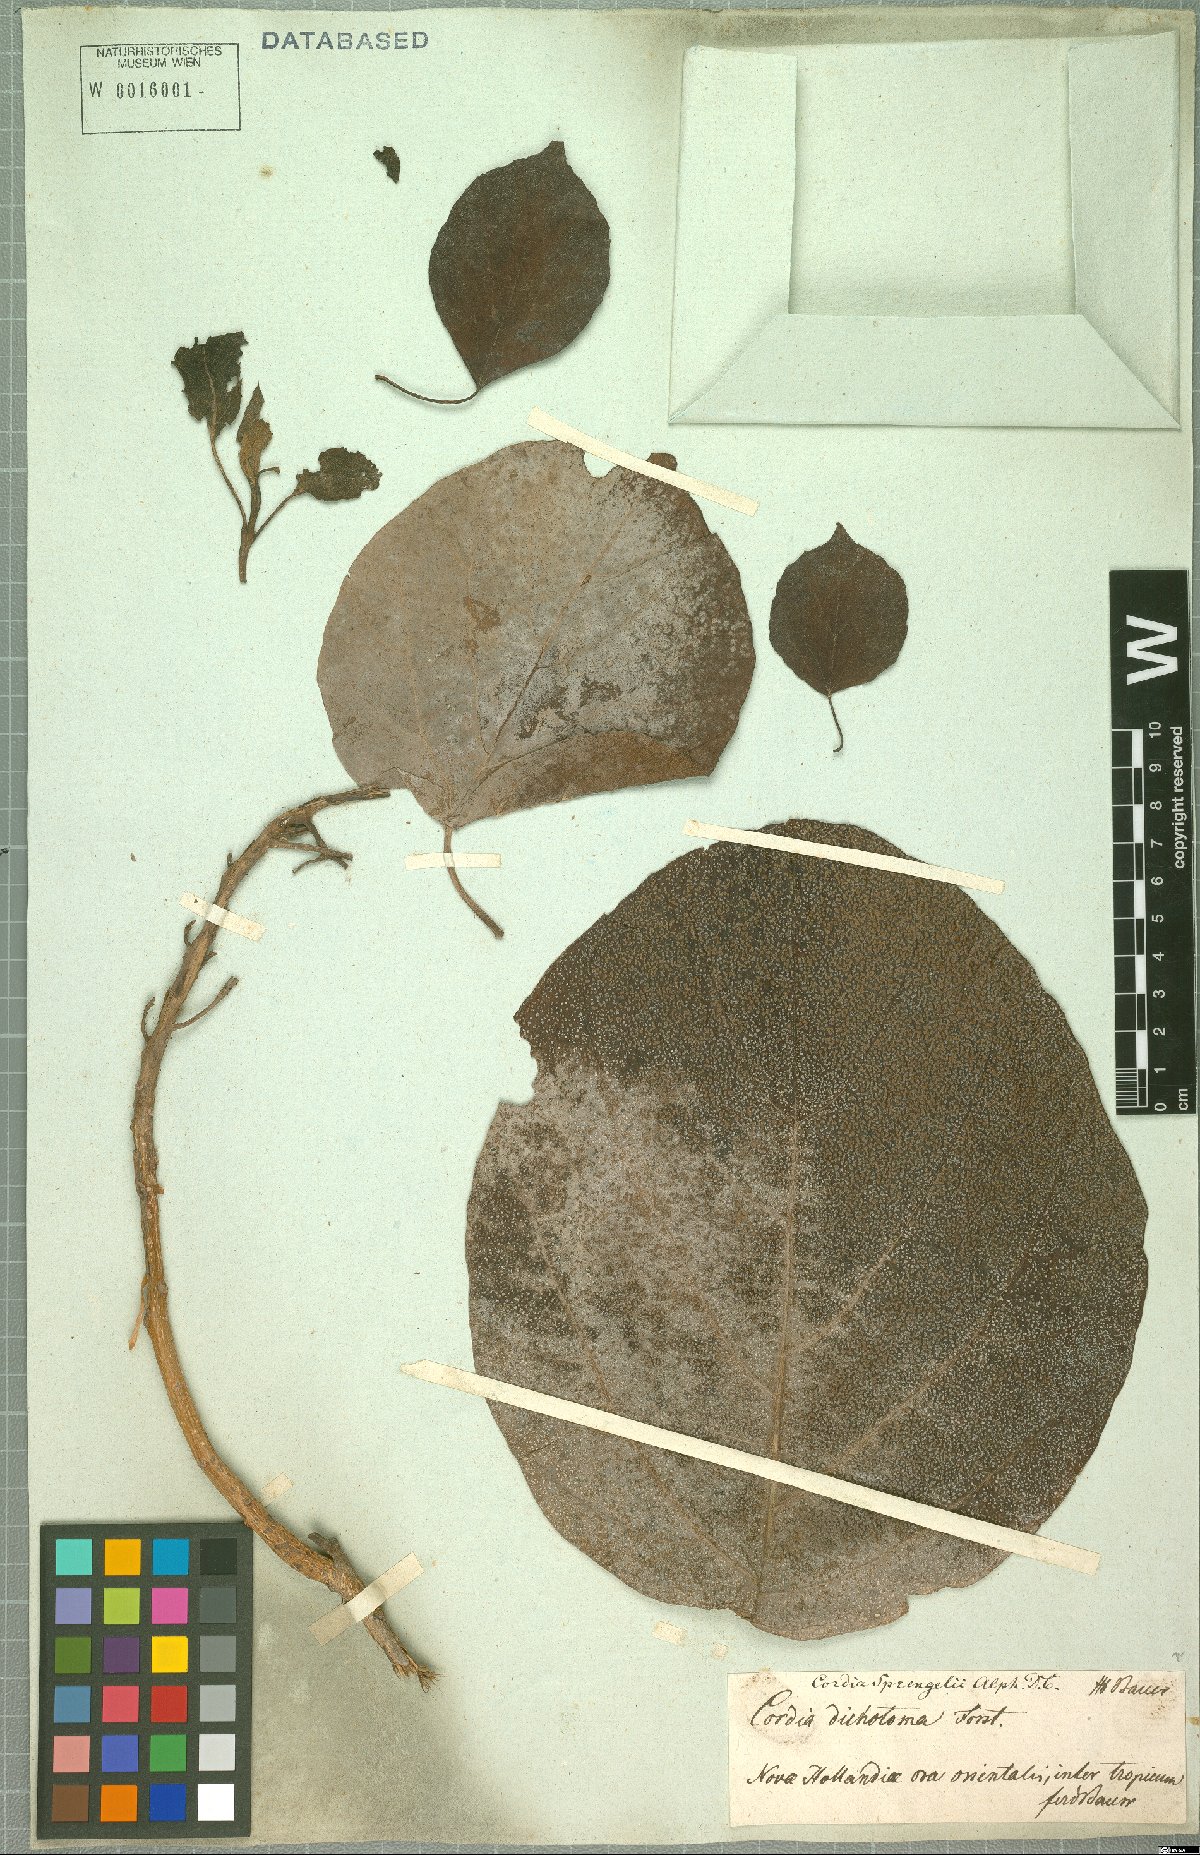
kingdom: Plantae
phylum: Tracheophyta
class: Magnoliopsida
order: Boraginales
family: Cordiaceae
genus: Cordia
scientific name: Cordia aspera
